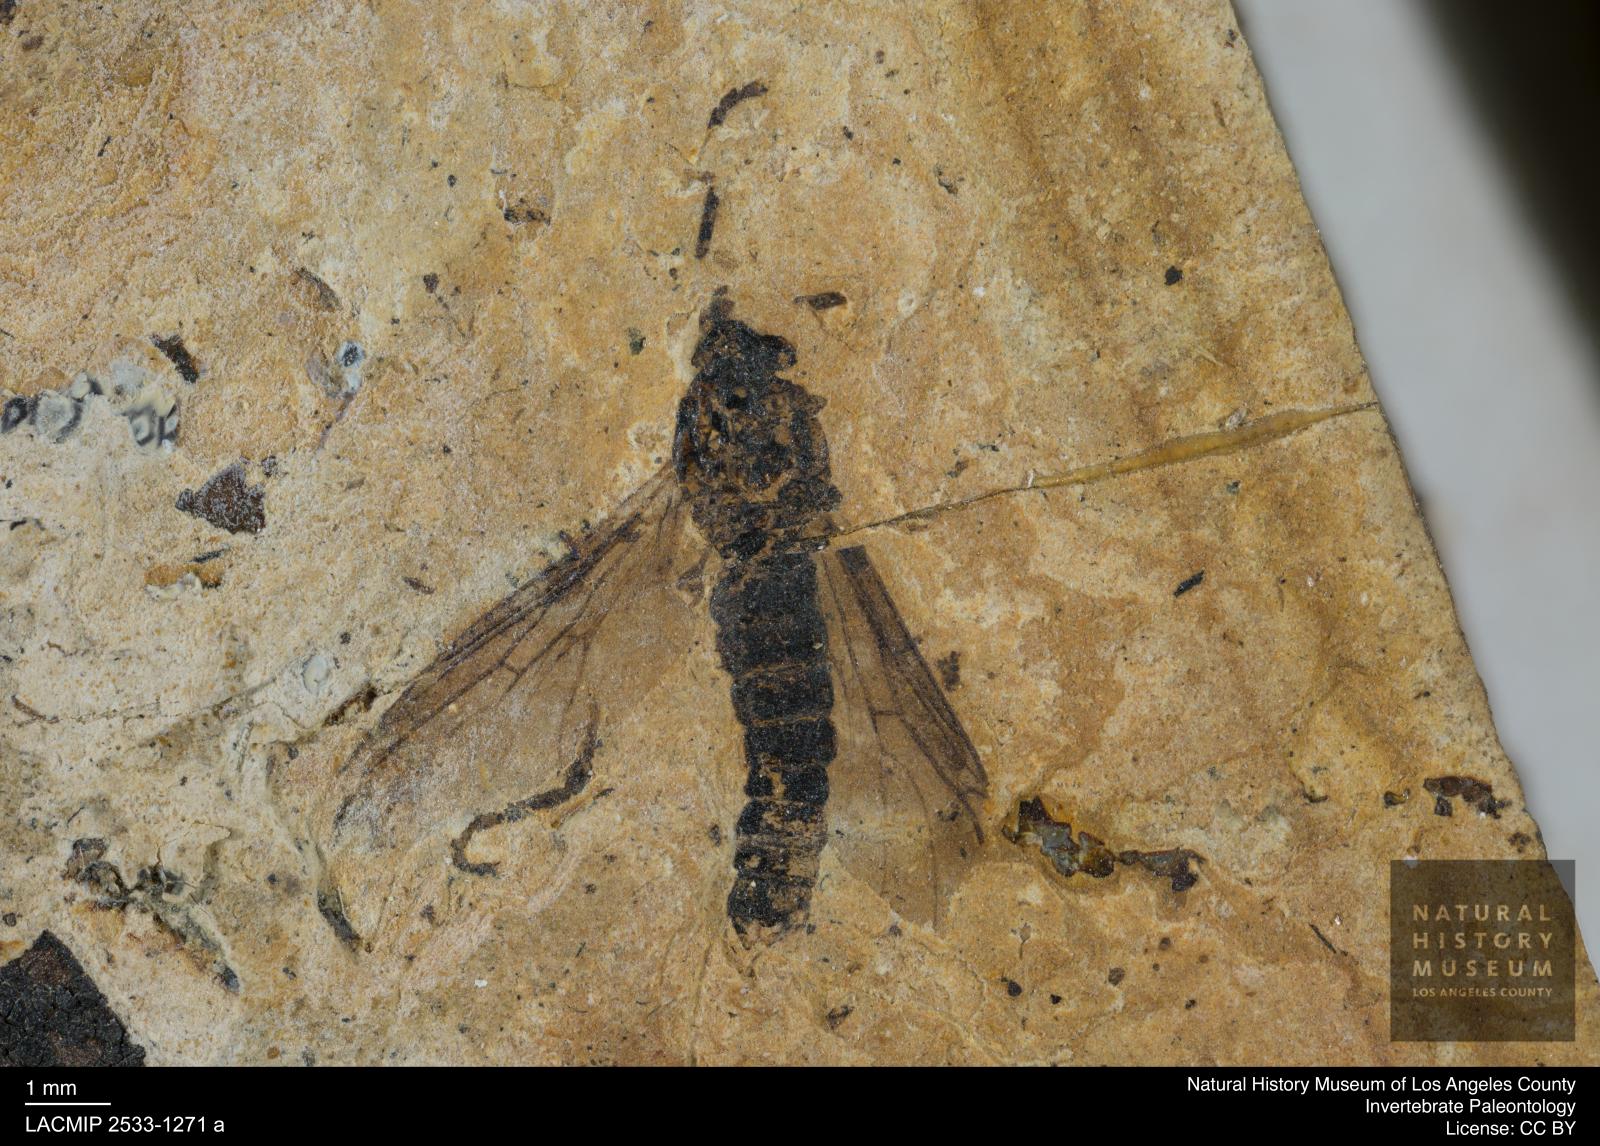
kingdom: Animalia
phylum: Arthropoda
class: Insecta
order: Diptera
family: Bibionidae
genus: Plecia
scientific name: Plecia
